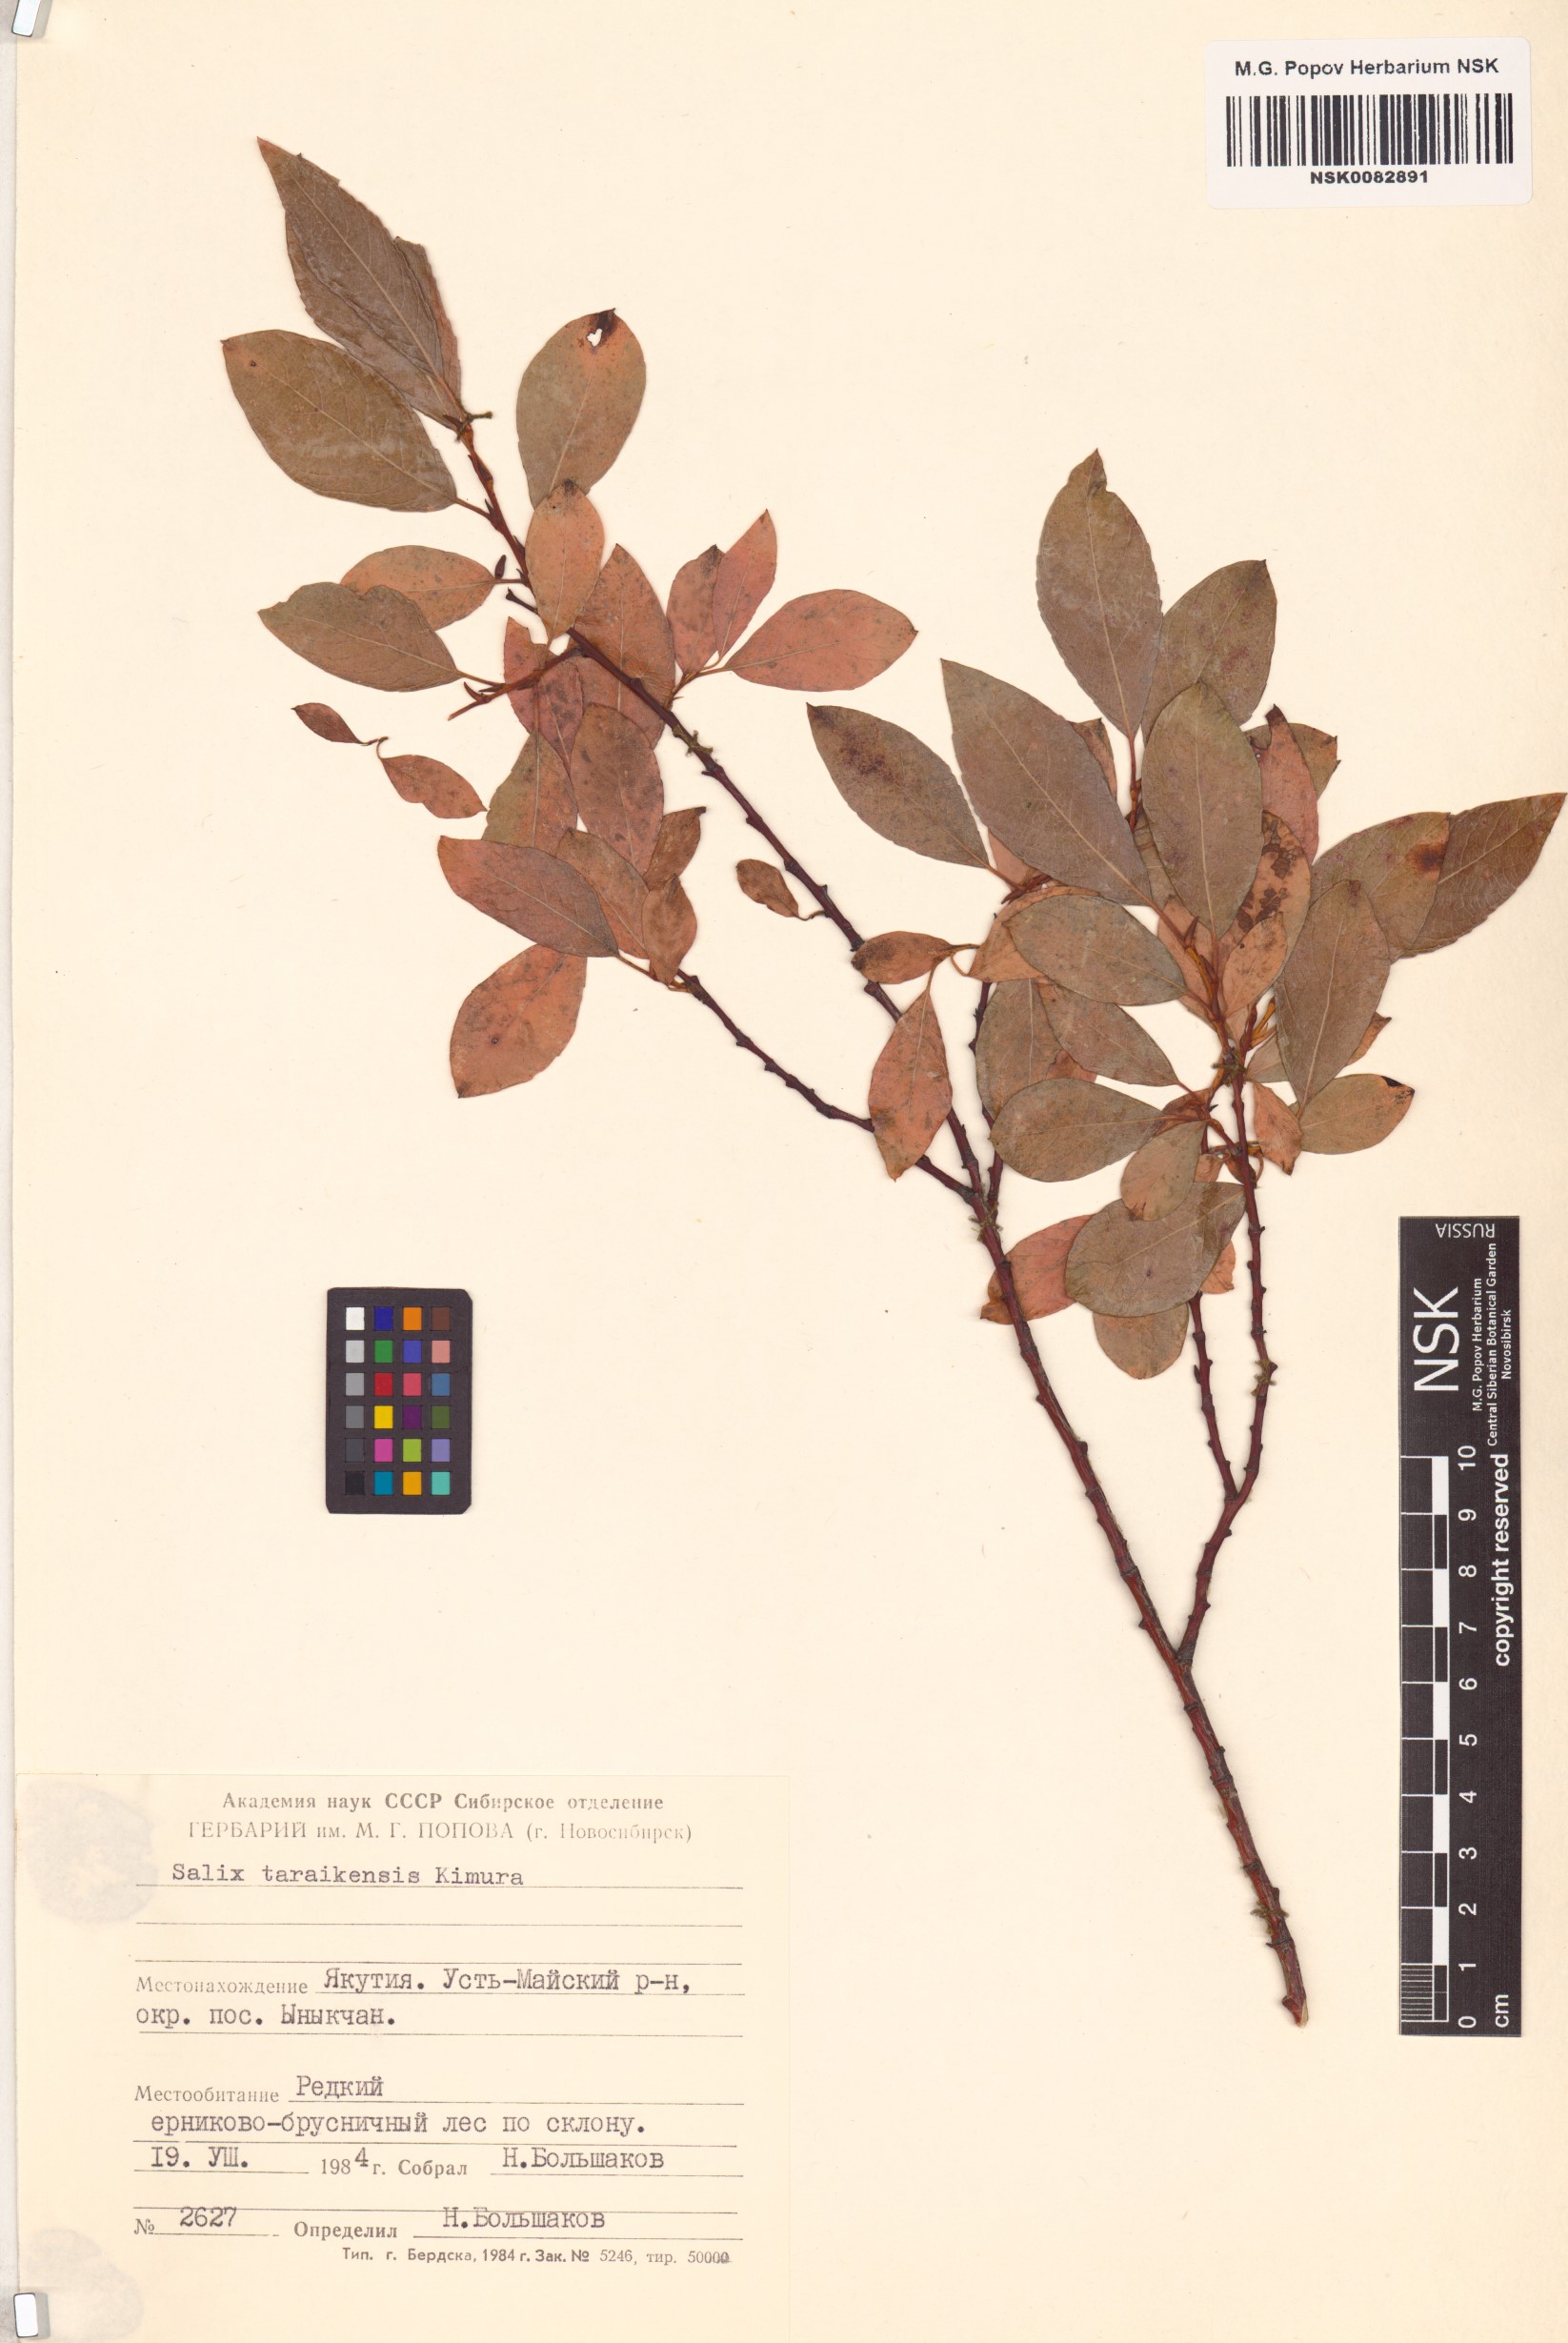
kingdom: Plantae
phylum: Tracheophyta
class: Magnoliopsida
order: Malpighiales
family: Salicaceae
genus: Salix
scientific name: Salix taraikensis
